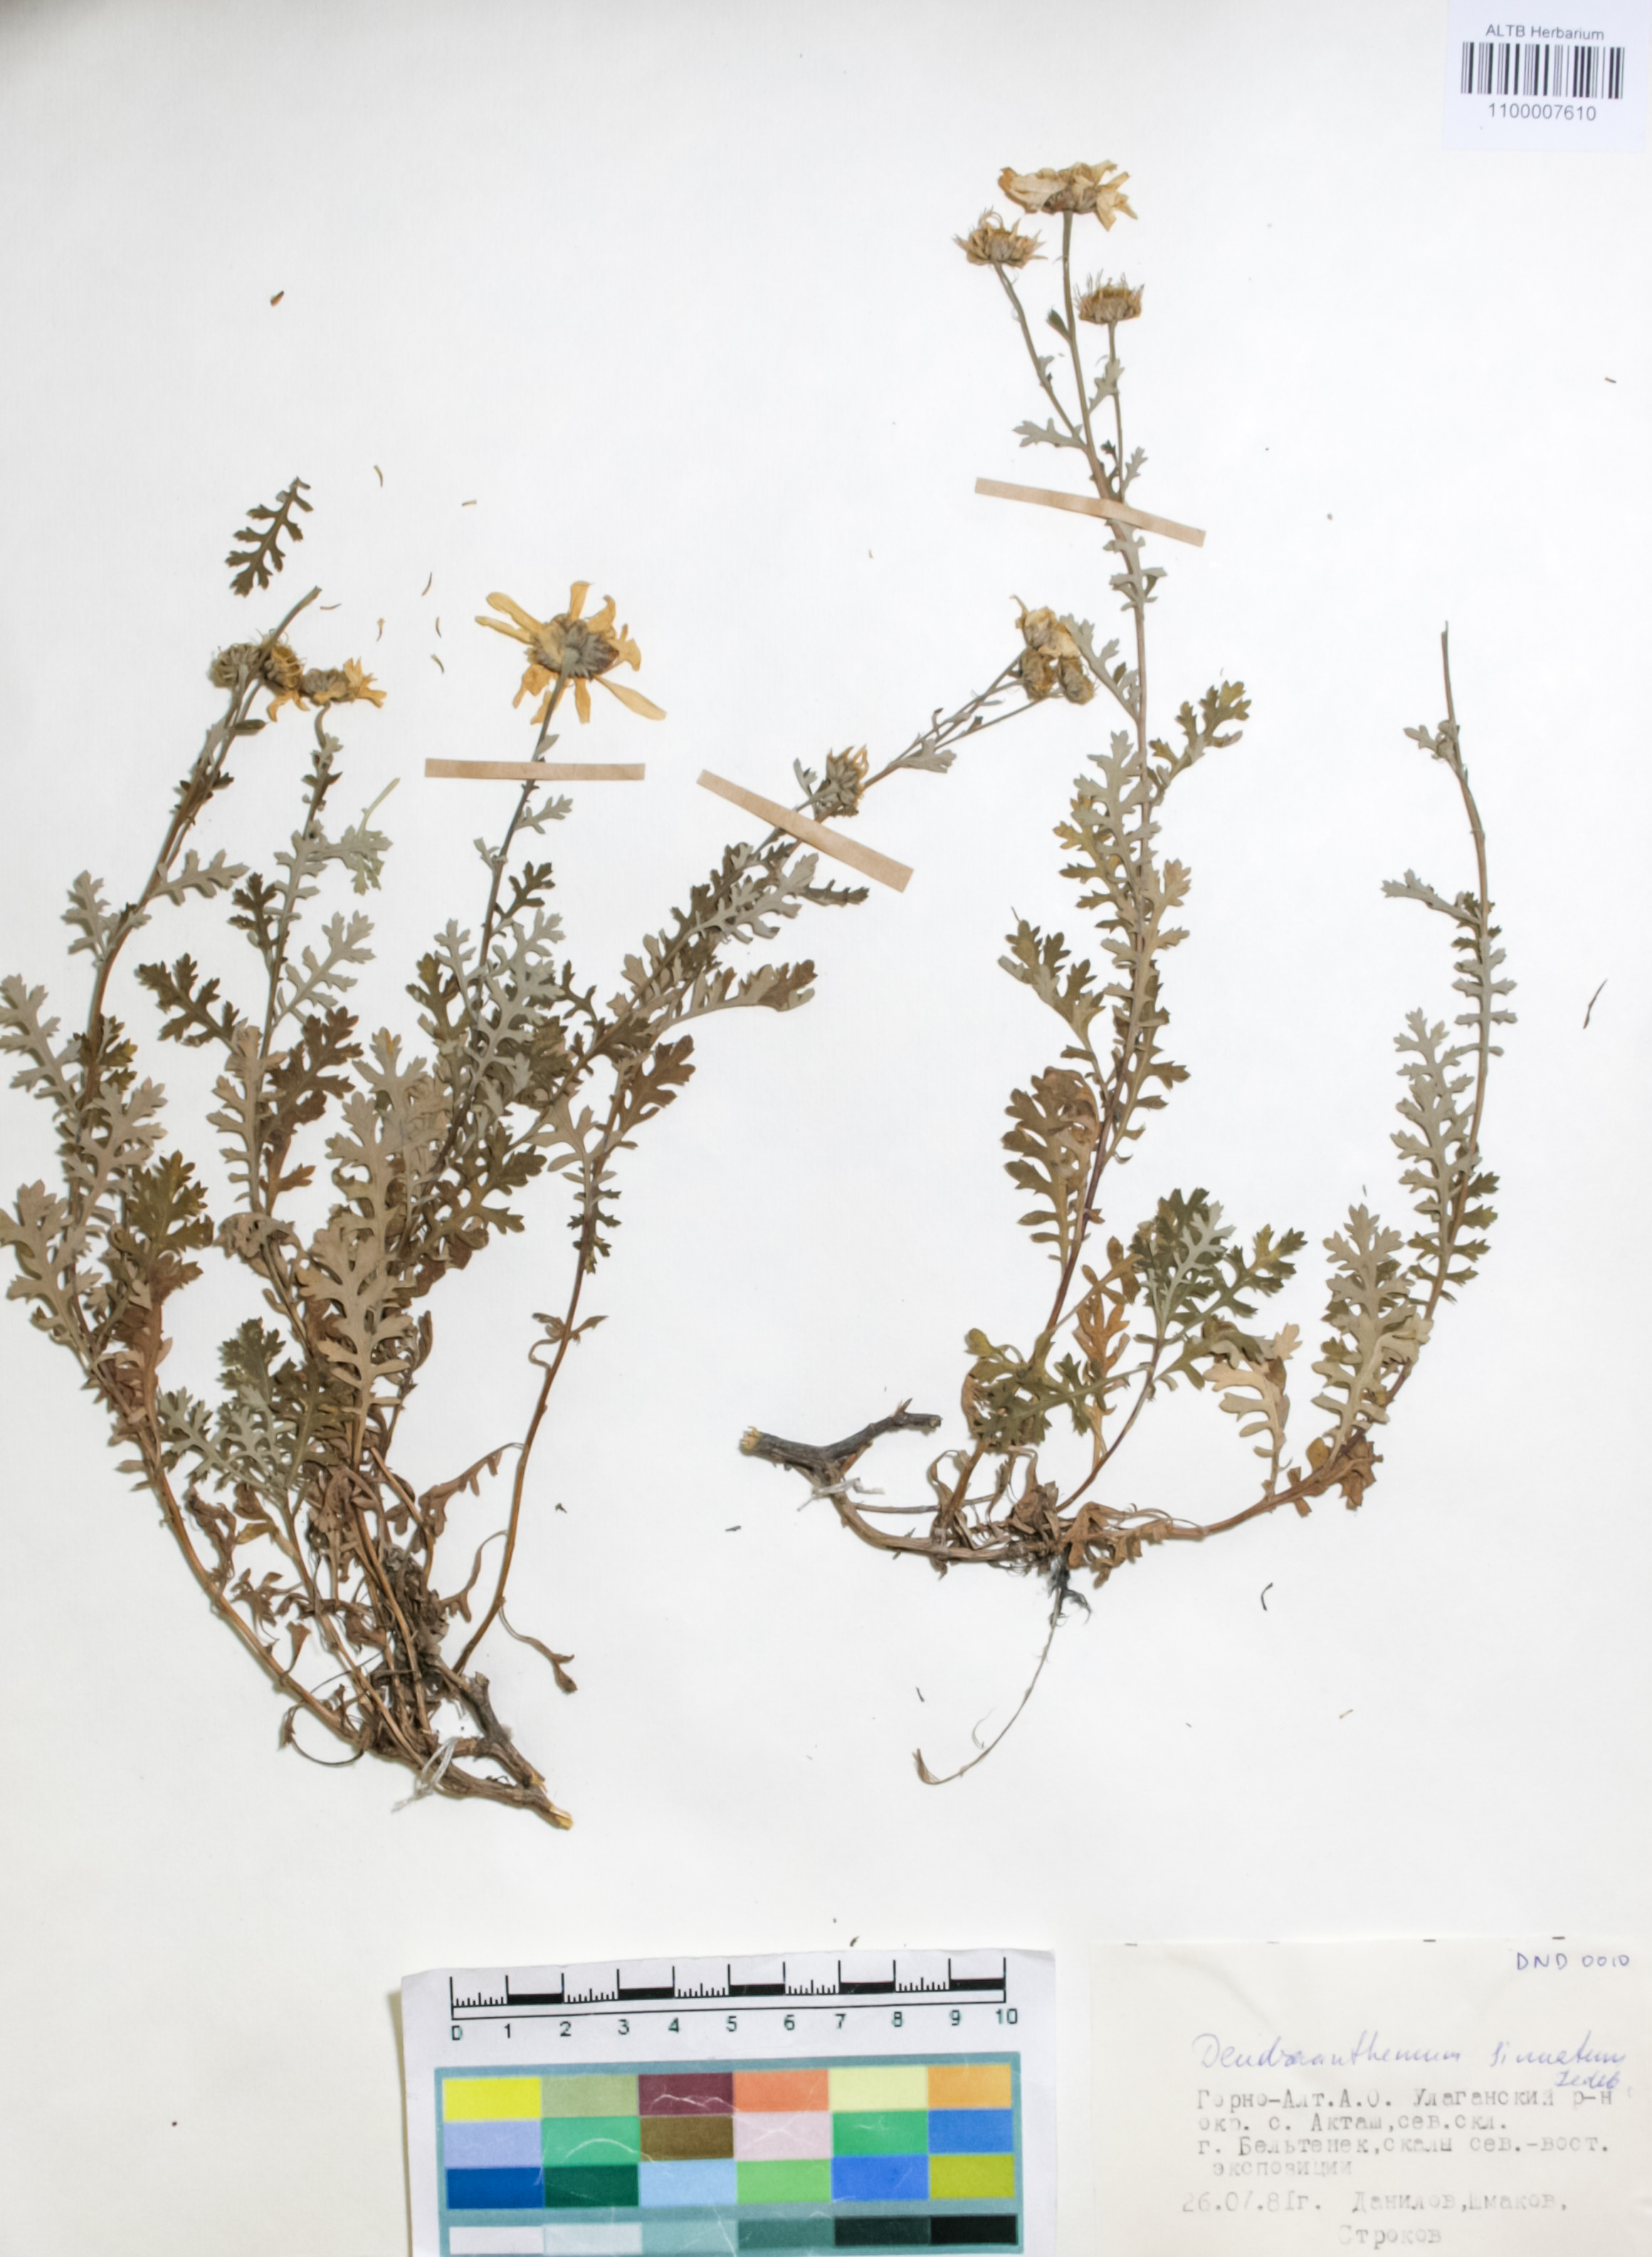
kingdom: Plantae
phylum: Tracheophyta
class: Magnoliopsida
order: Asterales
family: Asteraceae
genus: Chrysanthemum
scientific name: Chrysanthemum sinuatum
